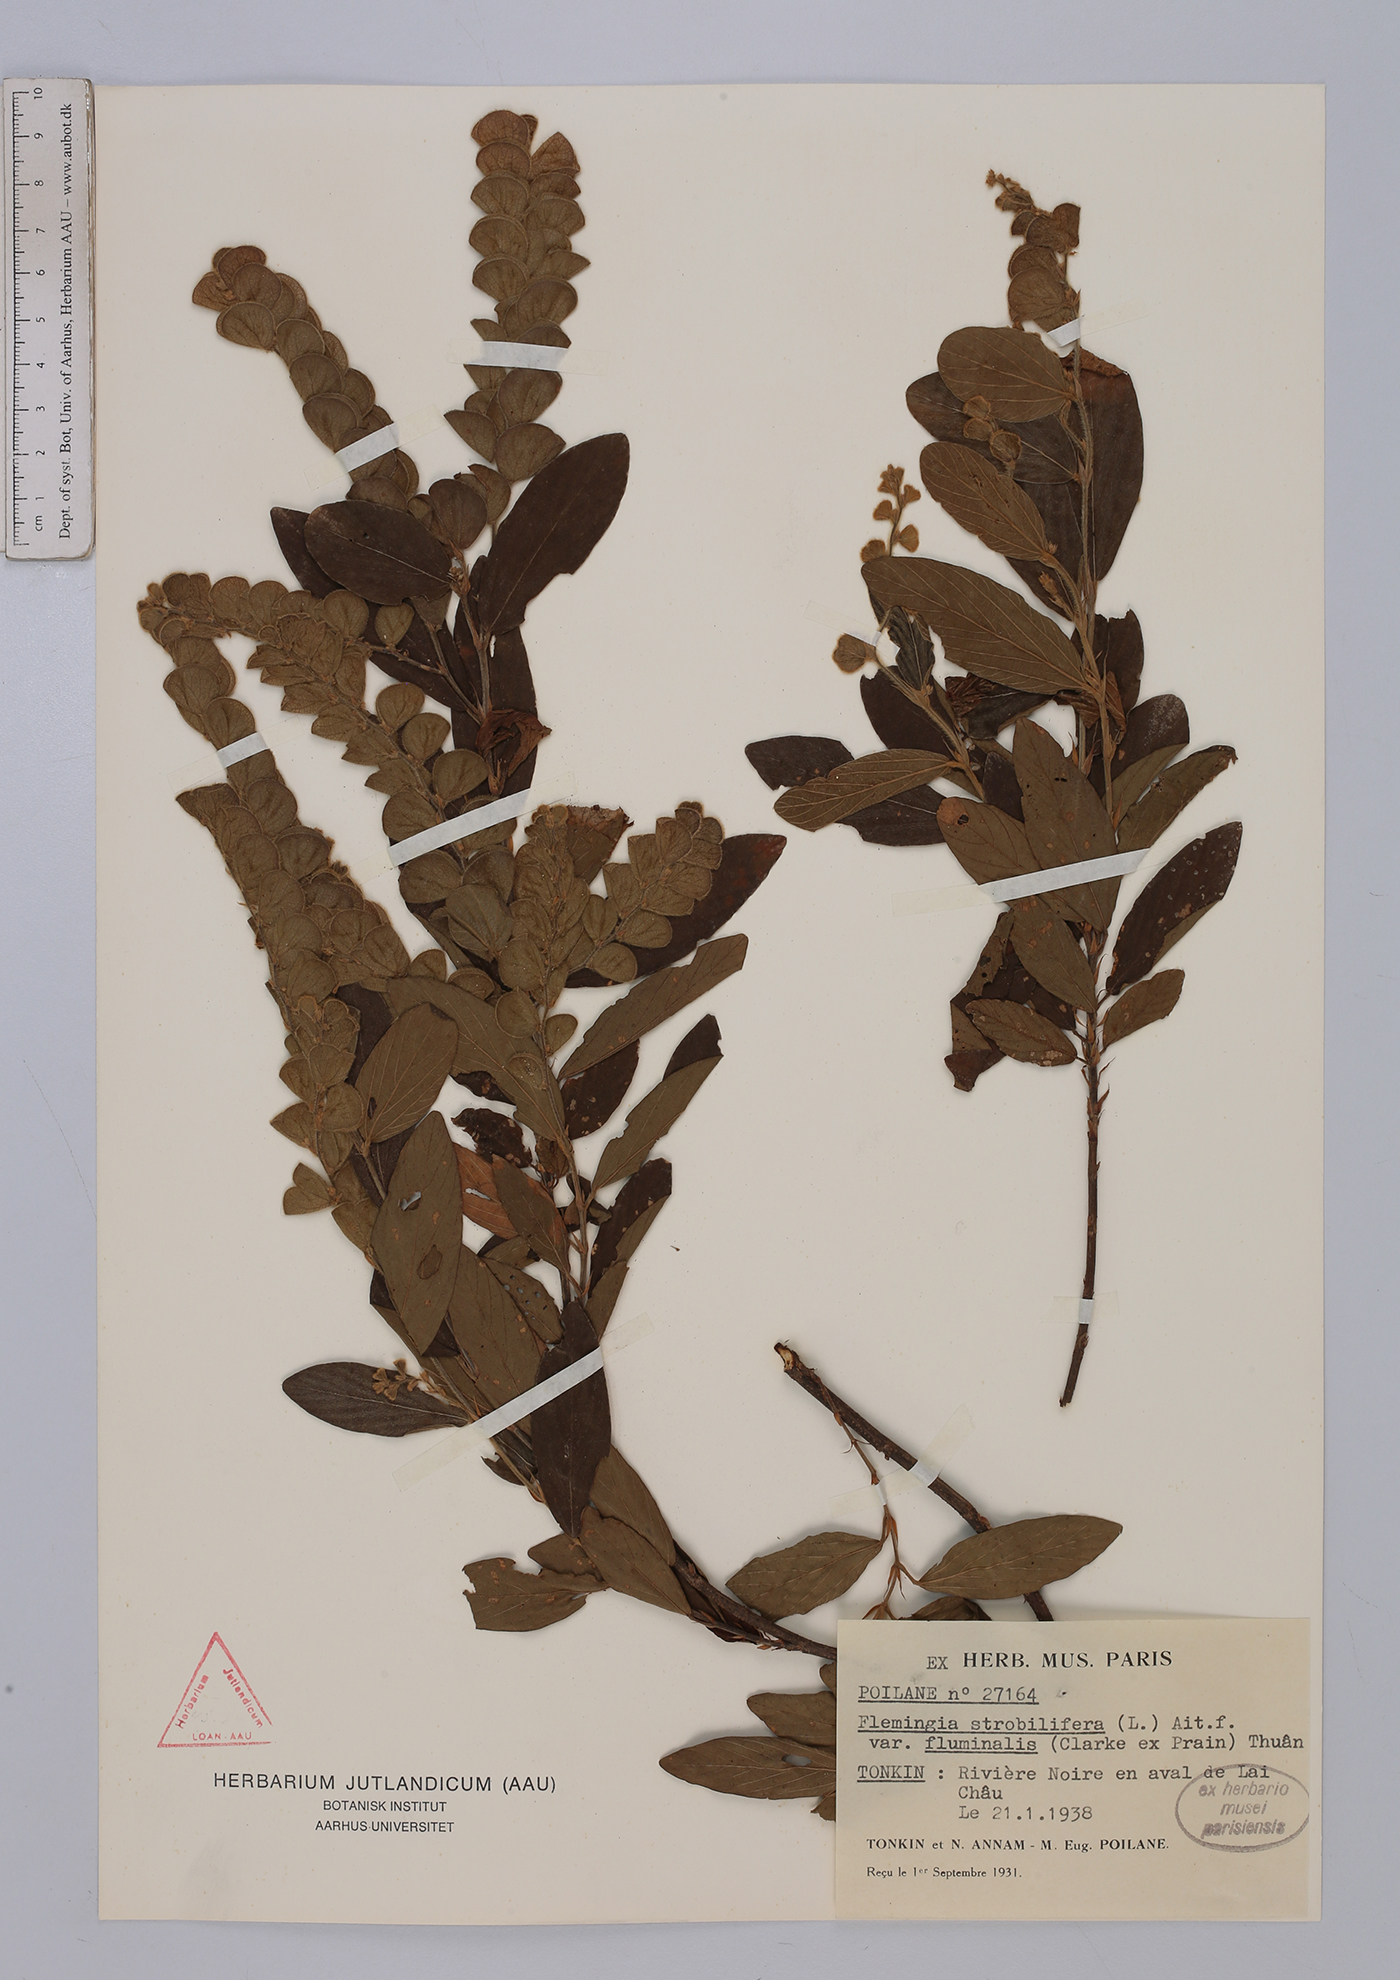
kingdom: Plantae
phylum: Tracheophyta
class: Magnoliopsida
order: Fabales
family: Fabaceae
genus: Flemingia
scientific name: Flemingia strobilifera
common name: Wild hops
